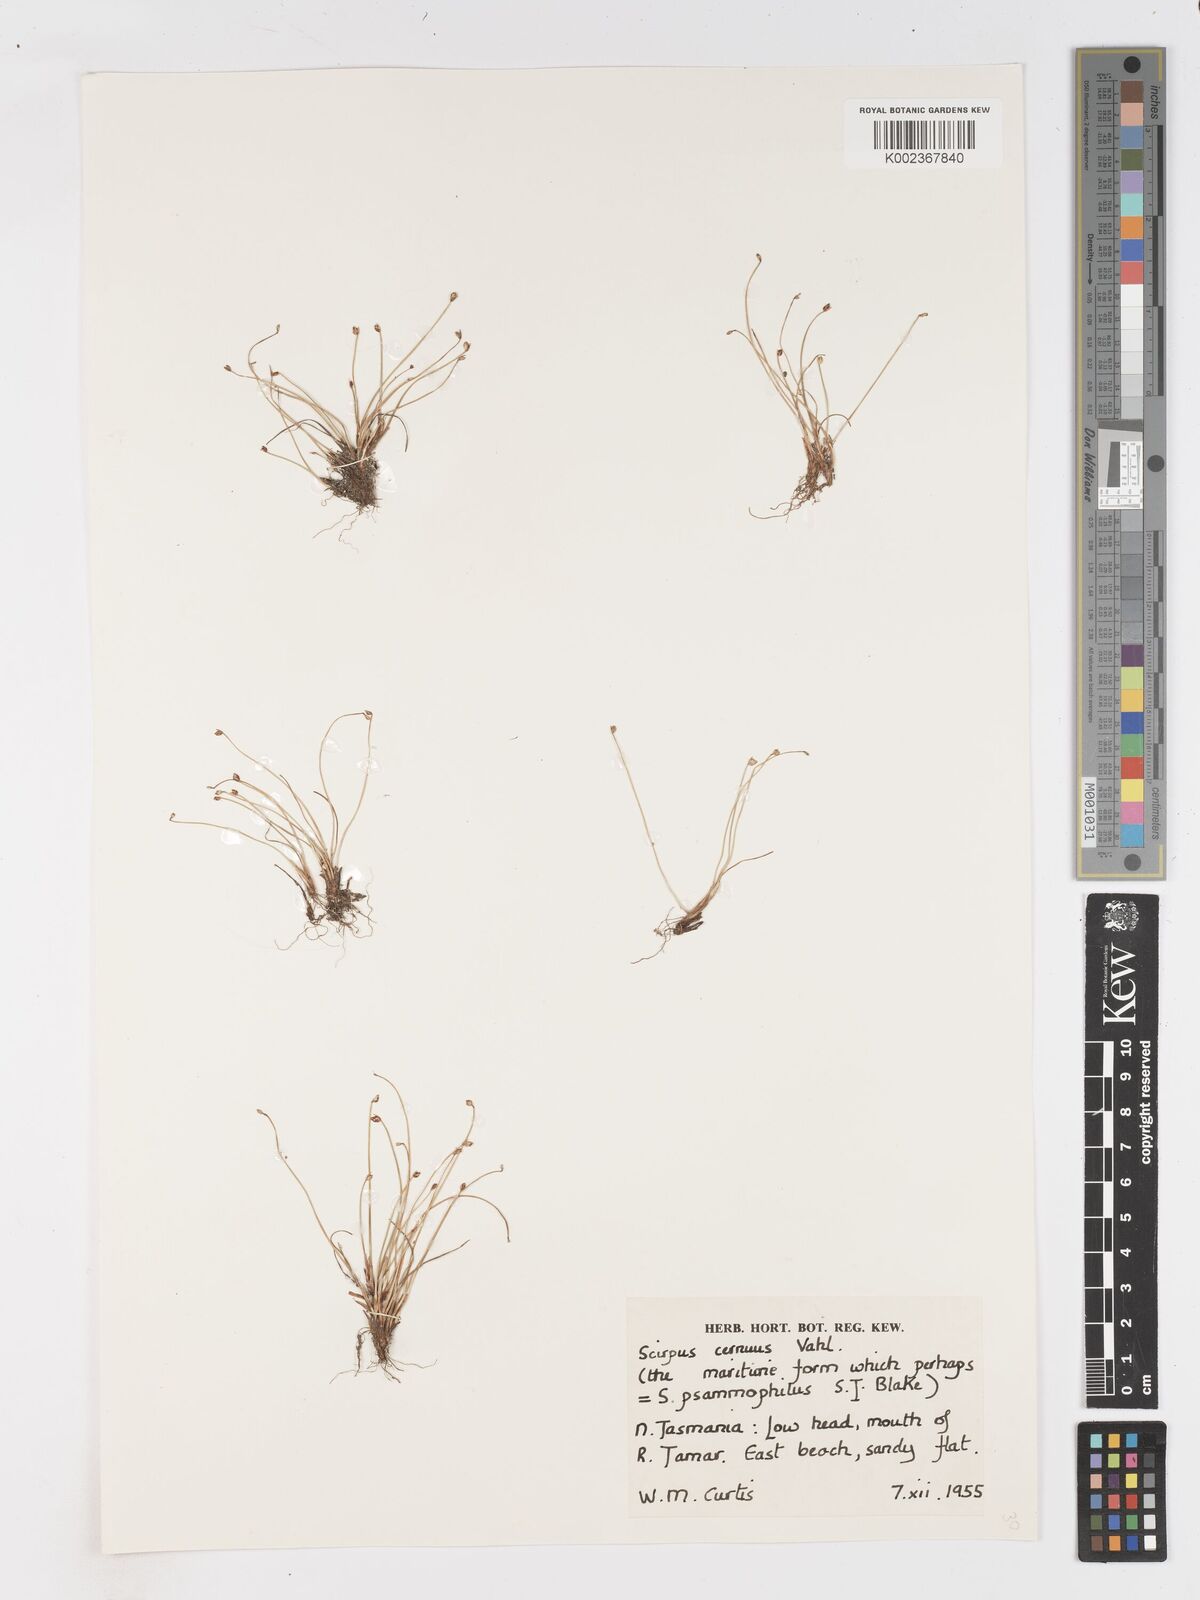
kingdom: Plantae
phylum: Tracheophyta
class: Liliopsida
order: Poales
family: Cyperaceae
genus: Isolepis
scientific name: Isolepis cernua
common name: Slender club-rush
